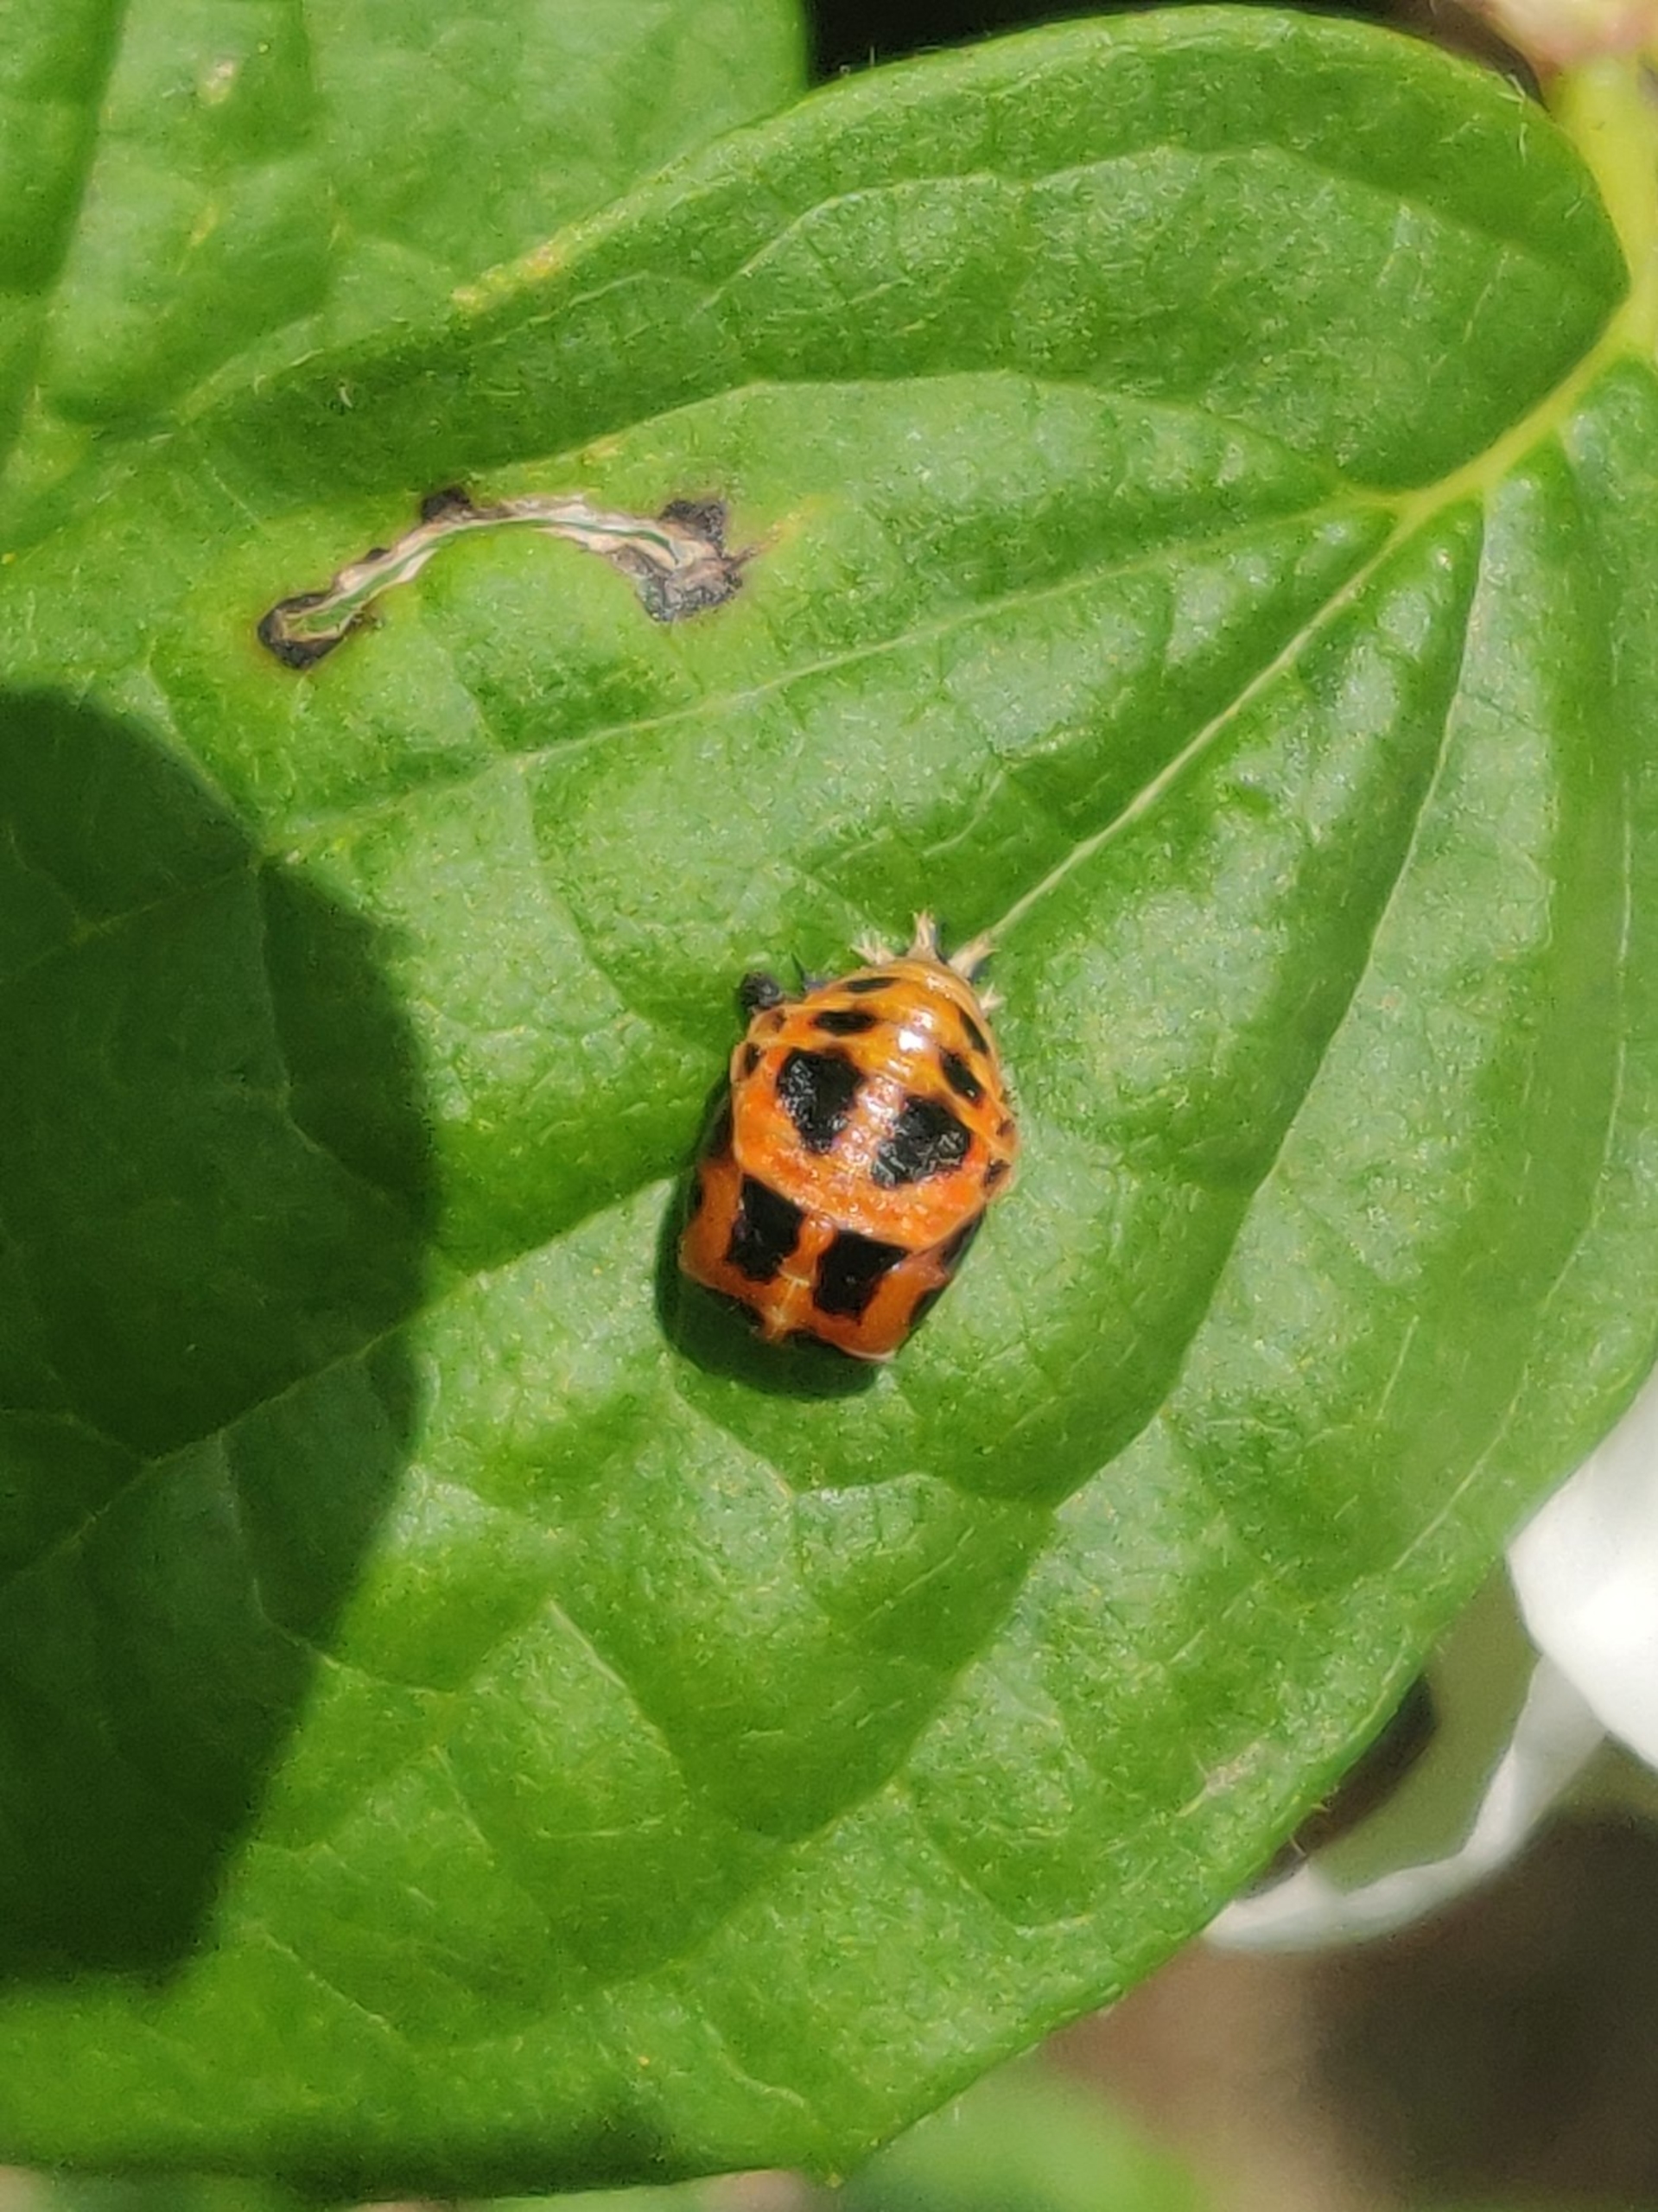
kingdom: Animalia
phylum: Arthropoda
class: Insecta
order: Coleoptera
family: Coccinellidae
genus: Harmonia
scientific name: Harmonia axyridis
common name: Harlekinmariehøne
